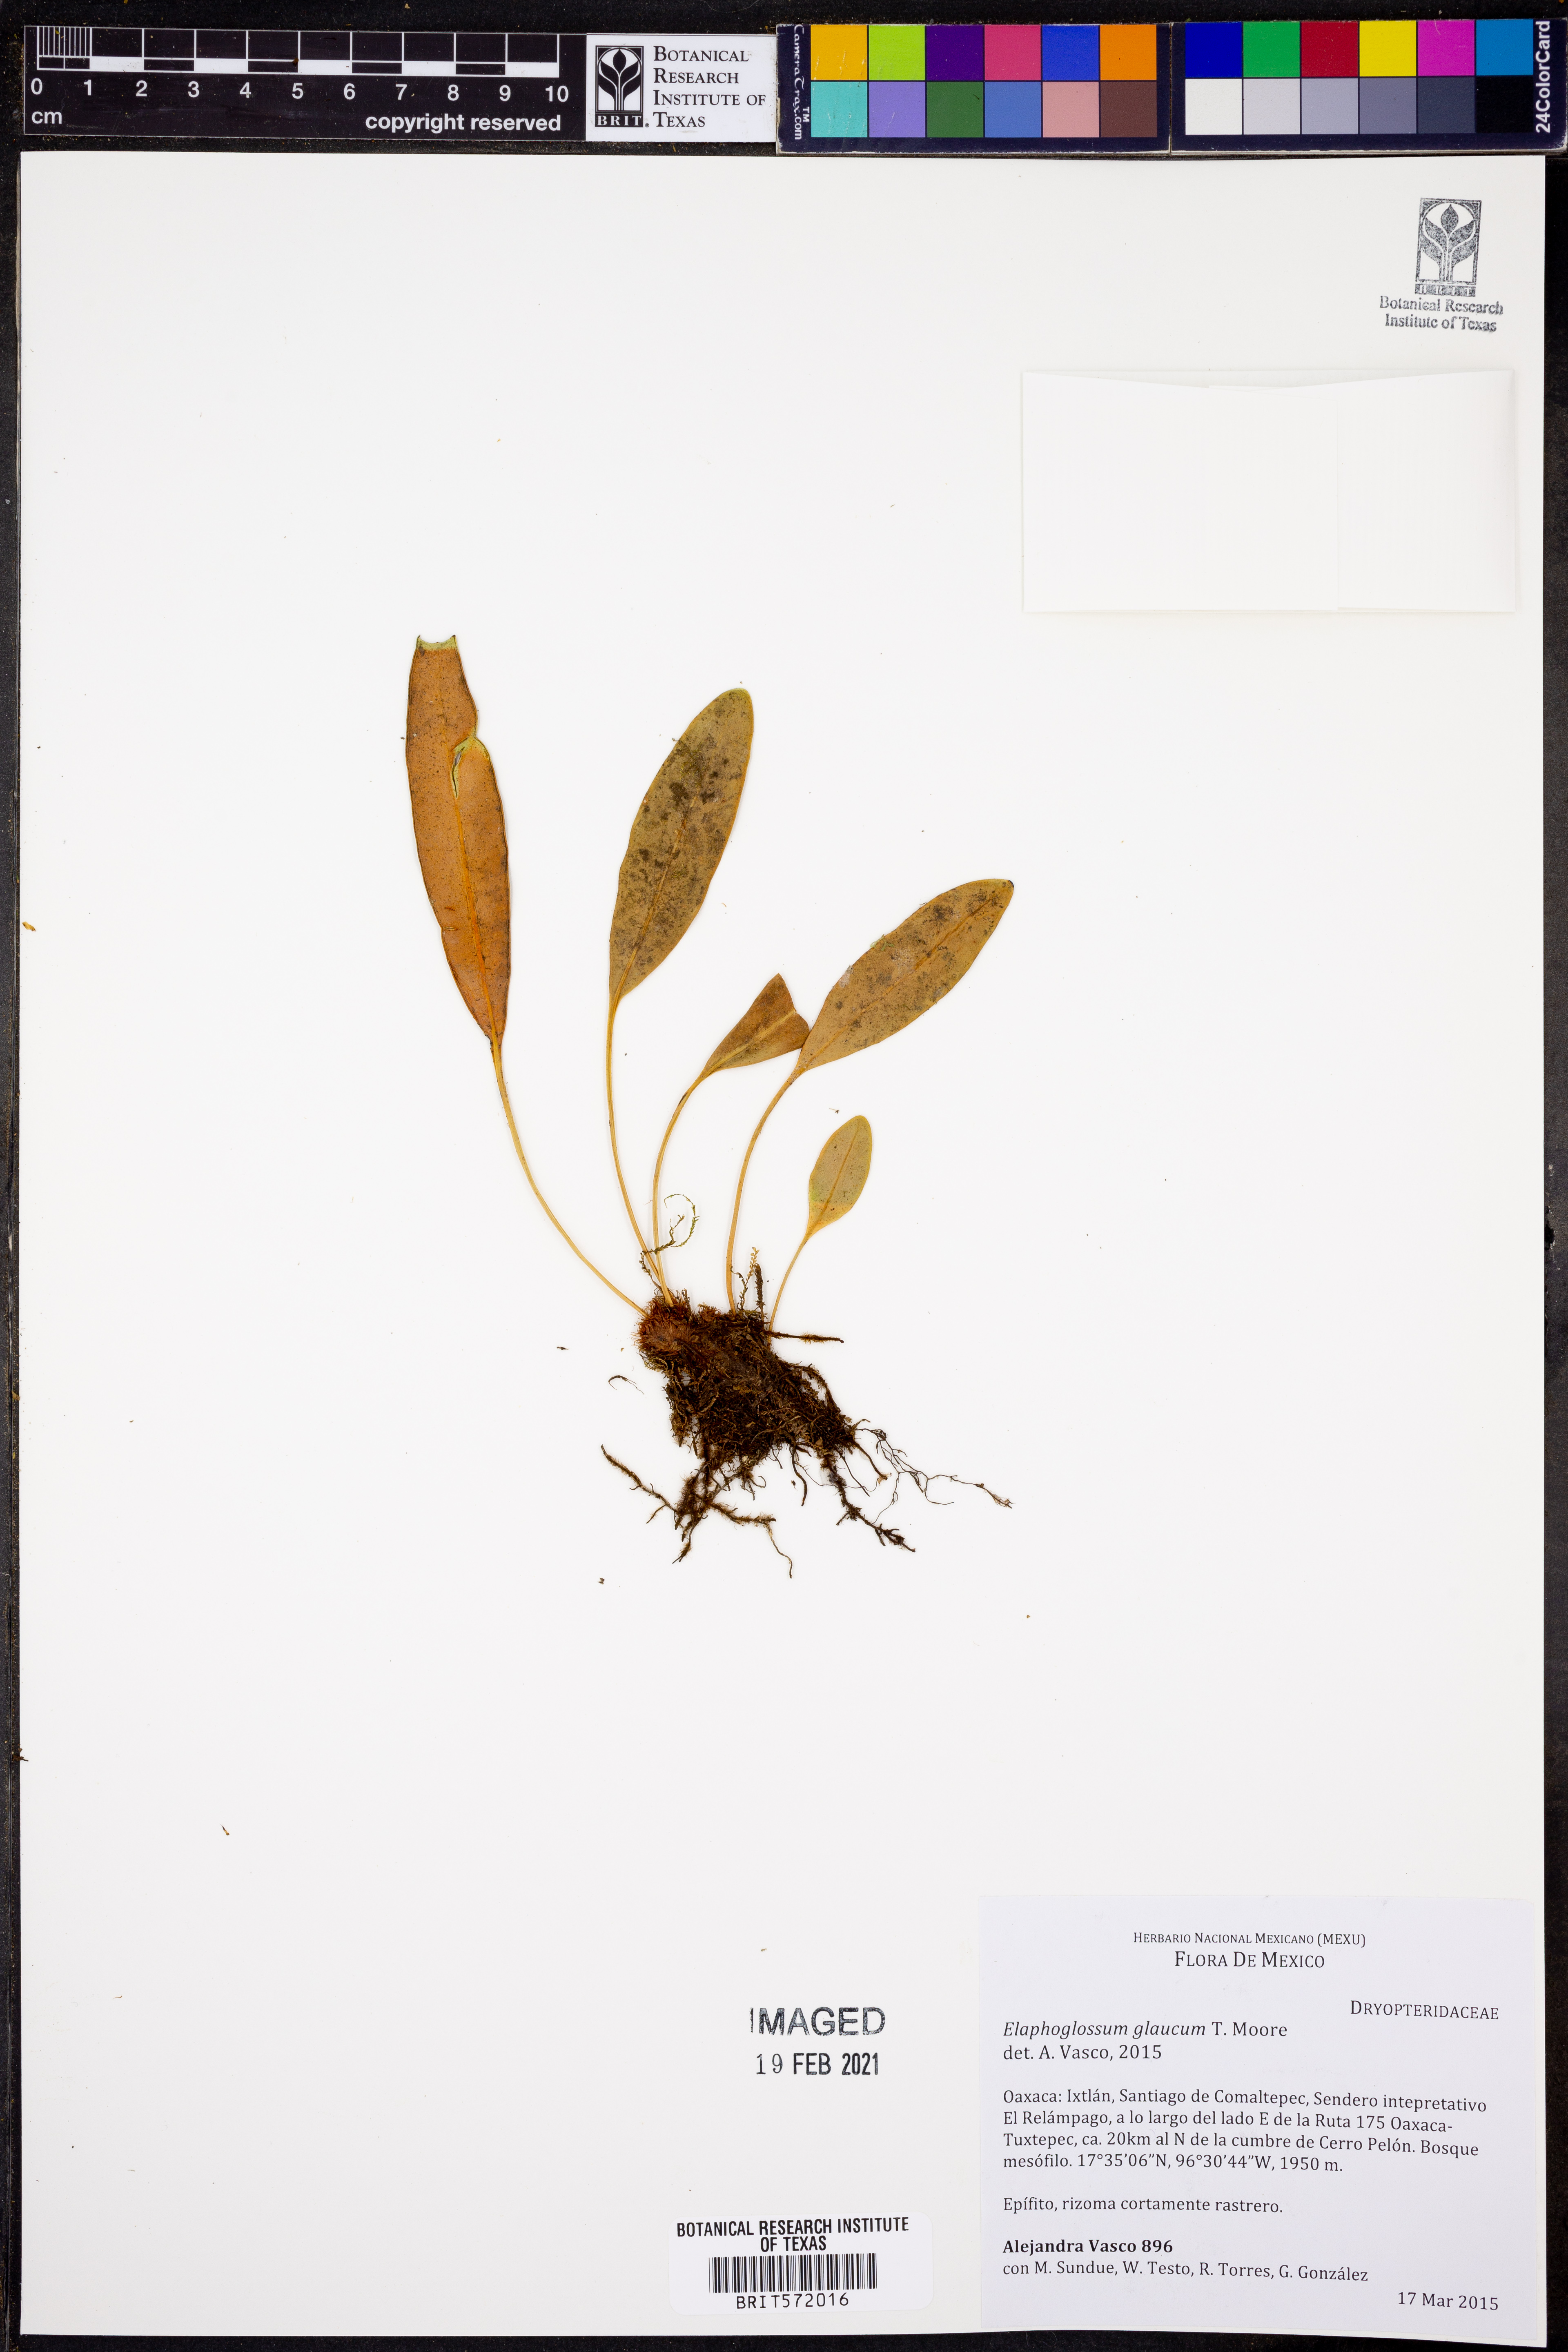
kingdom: Plantae
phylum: Tracheophyta
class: Polypodiopsida
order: Polypodiales
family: Dryopteridaceae
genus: Elaphoglossum
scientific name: Elaphoglossum glaucum
